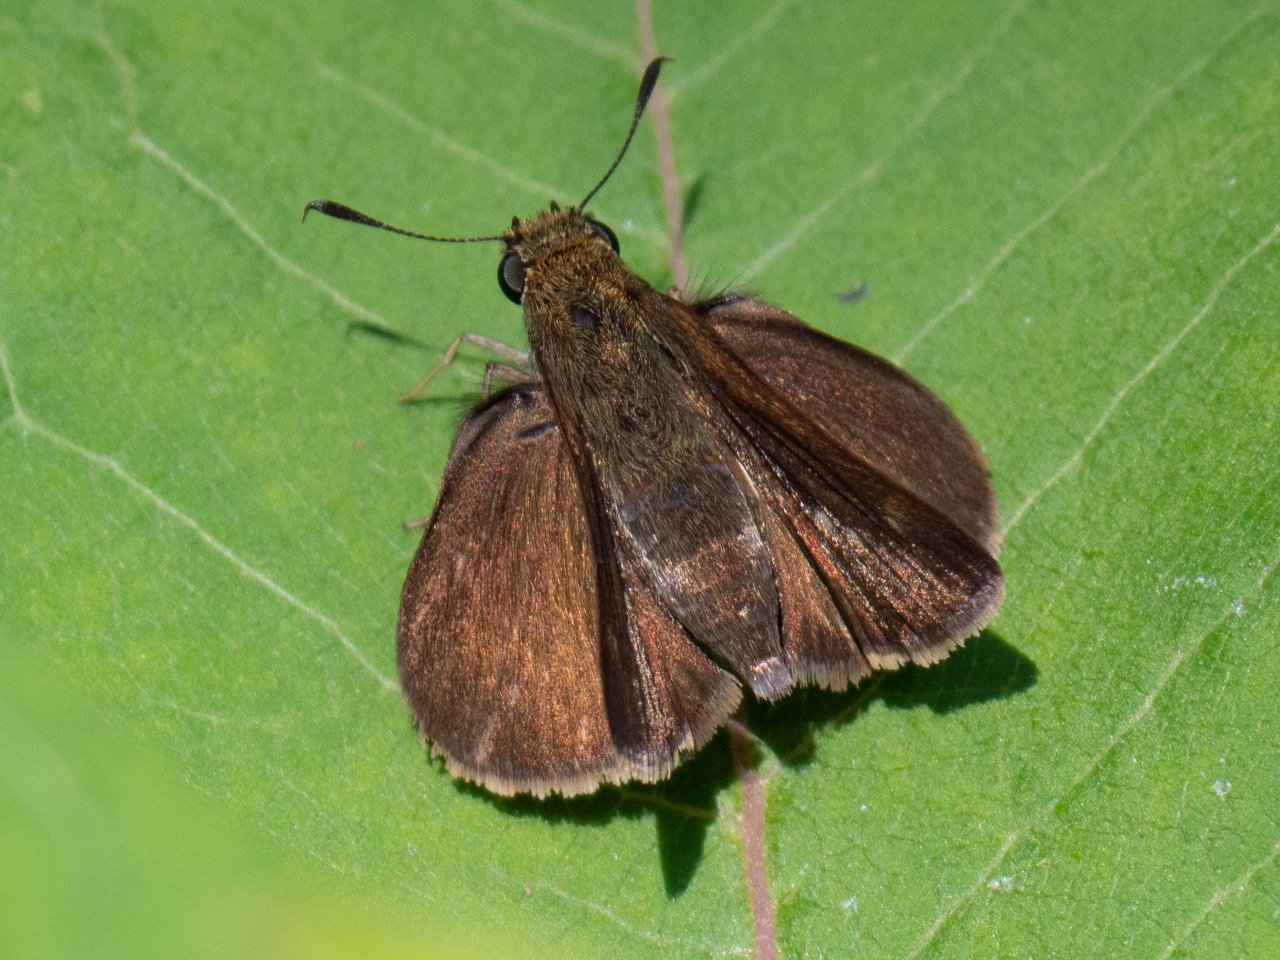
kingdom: Animalia
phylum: Arthropoda
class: Insecta
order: Lepidoptera
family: Hesperiidae
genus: Euphyes
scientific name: Euphyes vestris
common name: Dun Skipper
